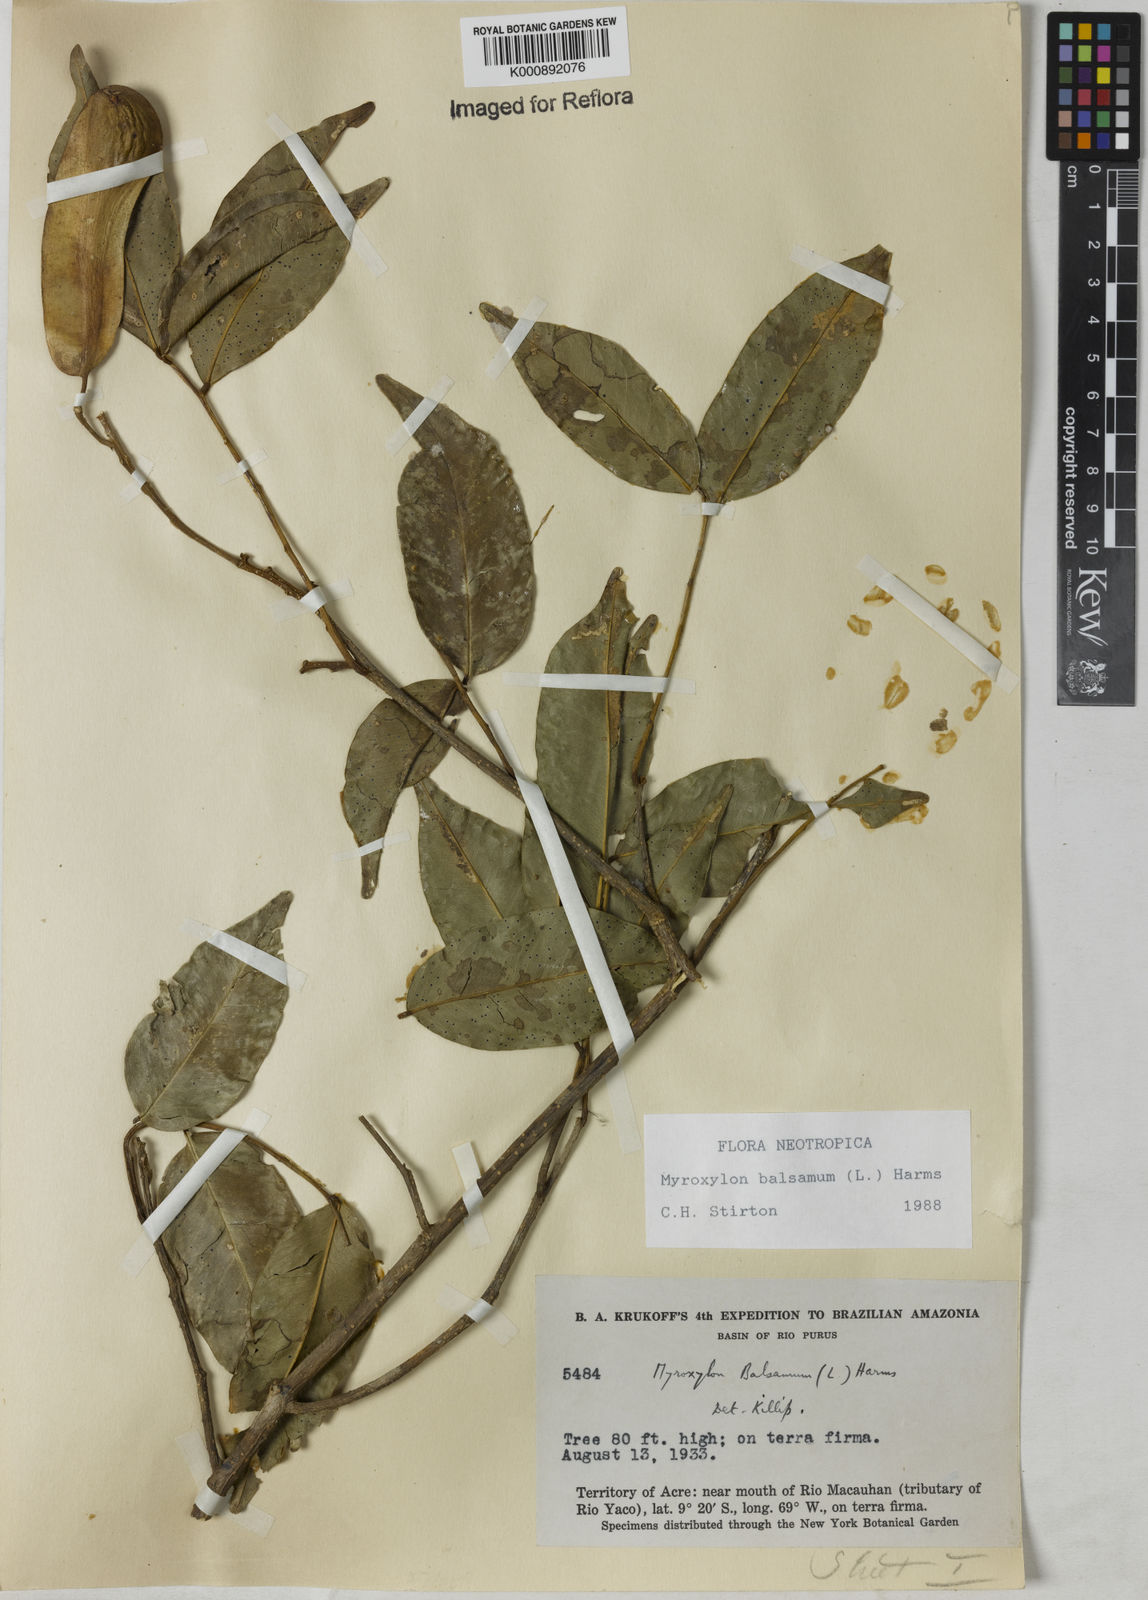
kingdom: Plantae
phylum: Tracheophyta
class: Magnoliopsida
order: Fabales
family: Fabaceae
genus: Myroxylon
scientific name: Myroxylon balsamum
